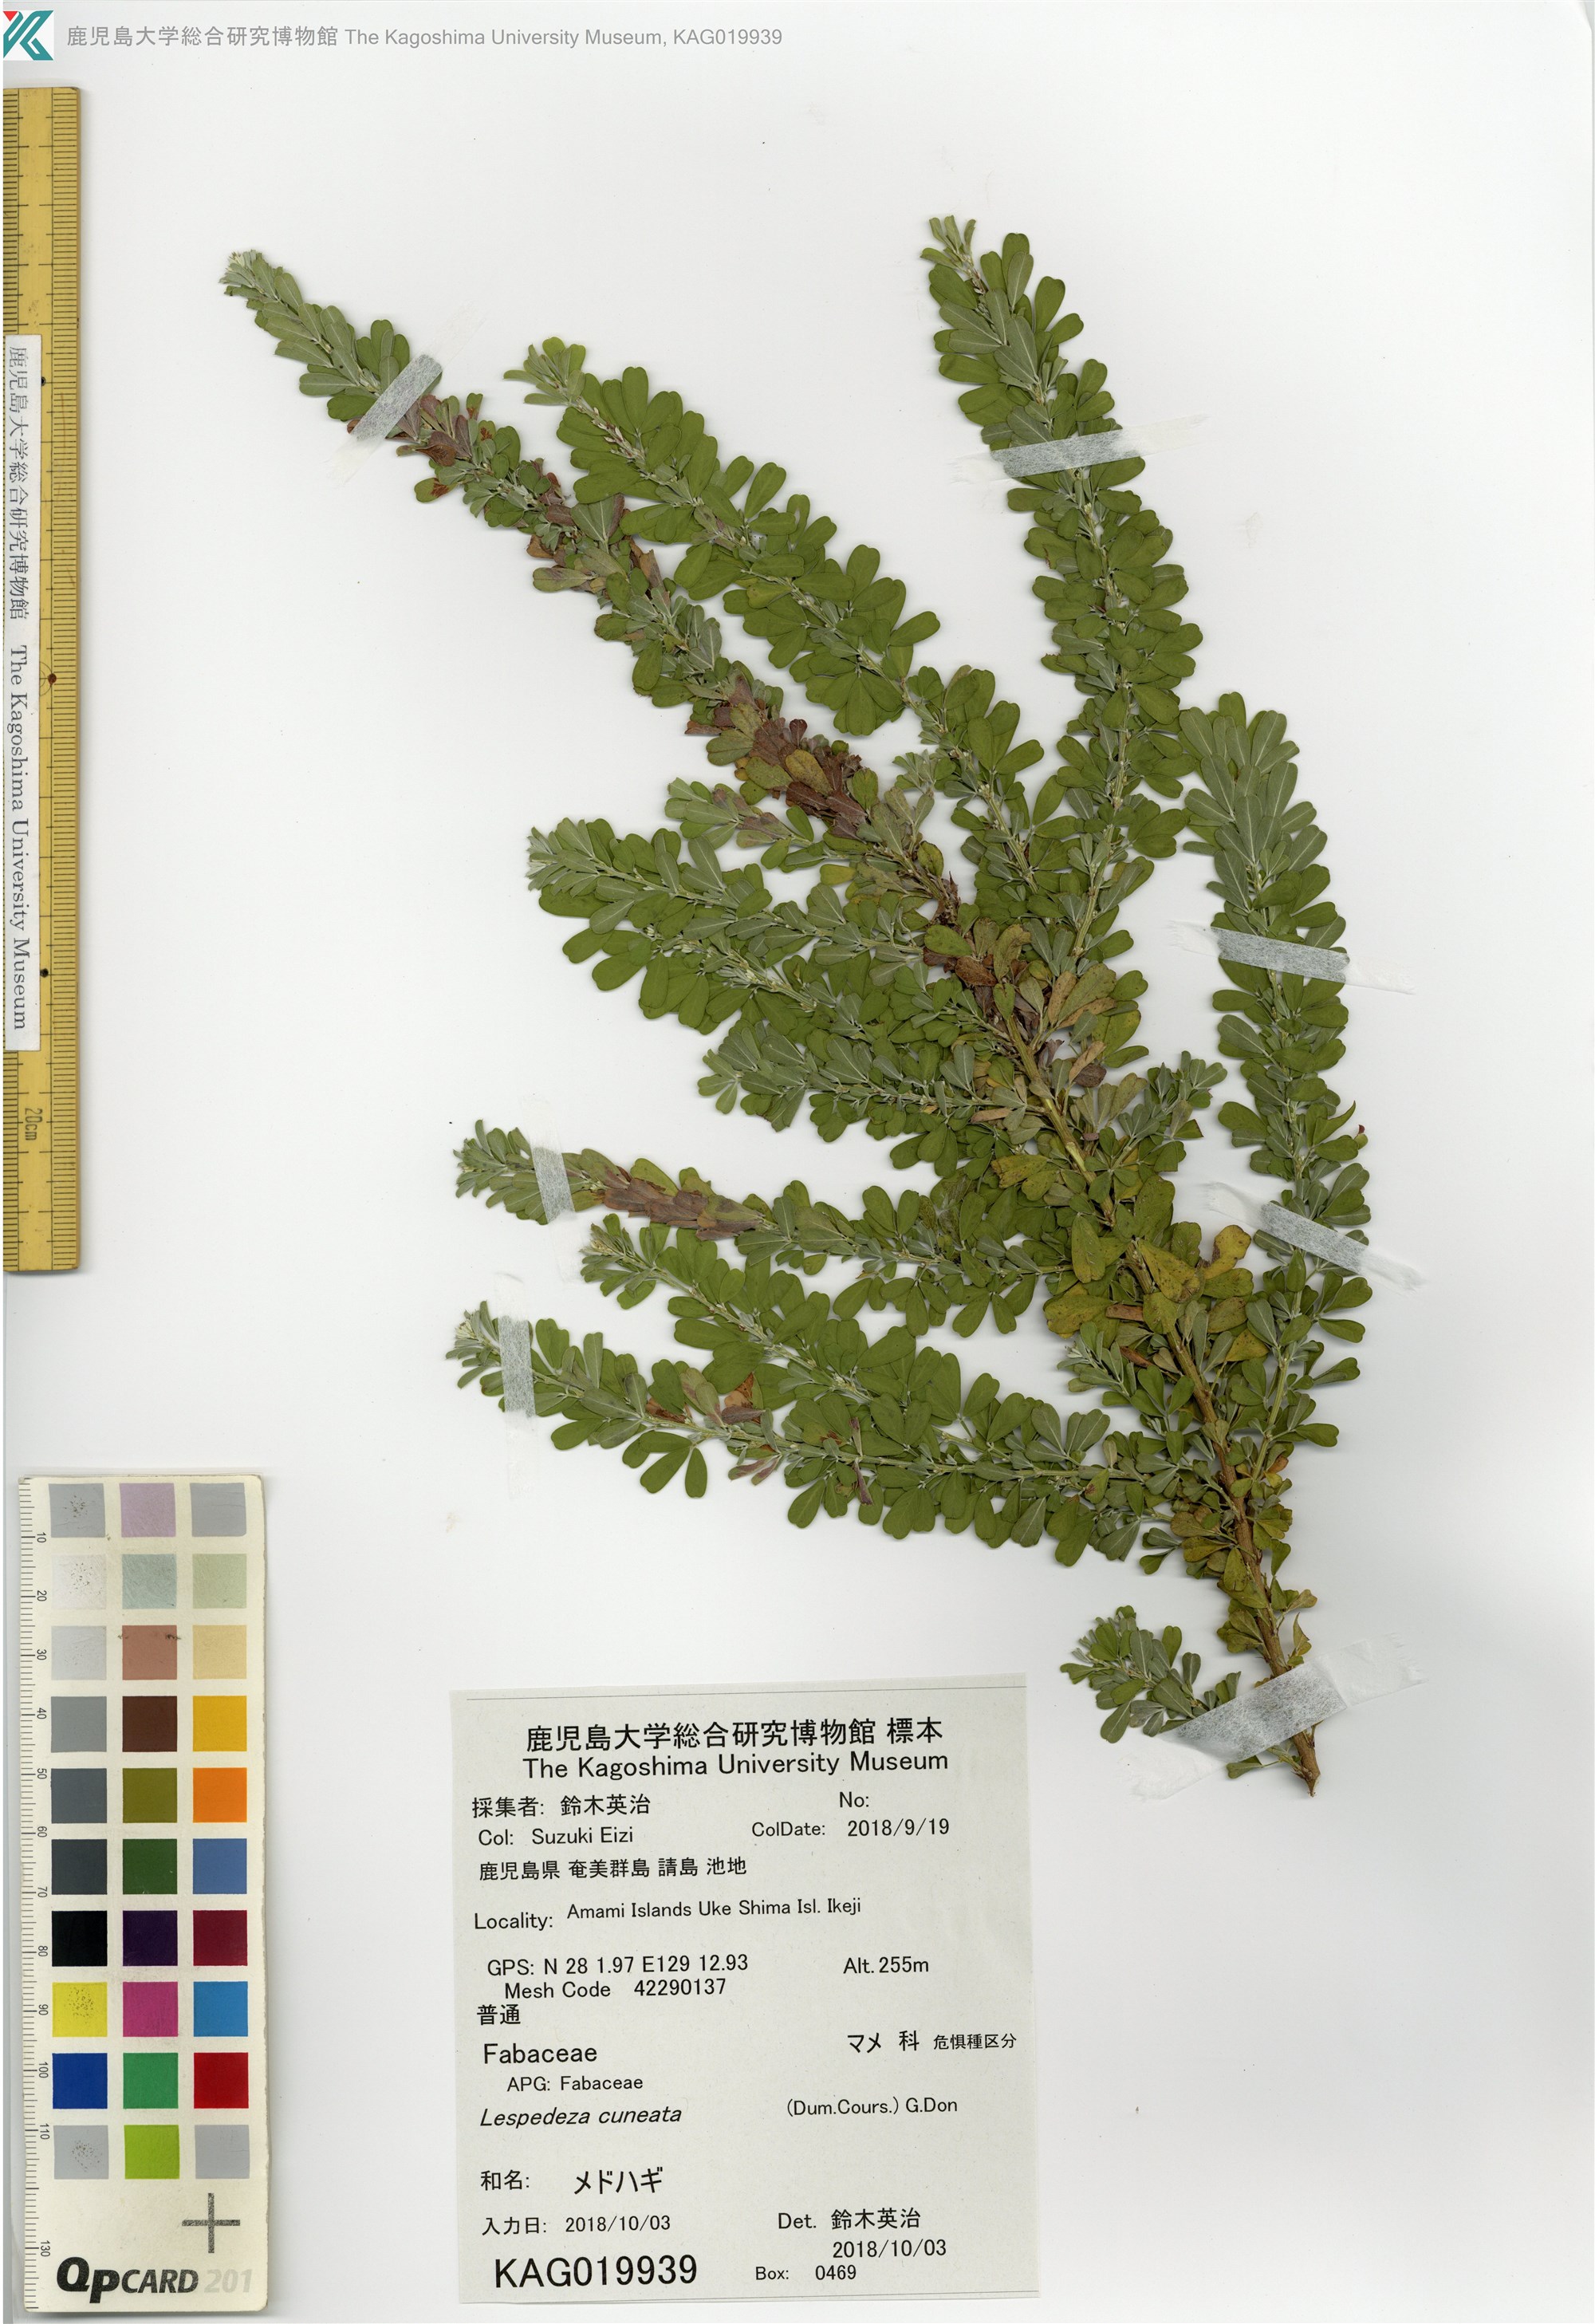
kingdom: Plantae
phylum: Tracheophyta
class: Magnoliopsida
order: Fabales
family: Fabaceae
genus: Lespedeza
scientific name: Lespedeza cuneata
